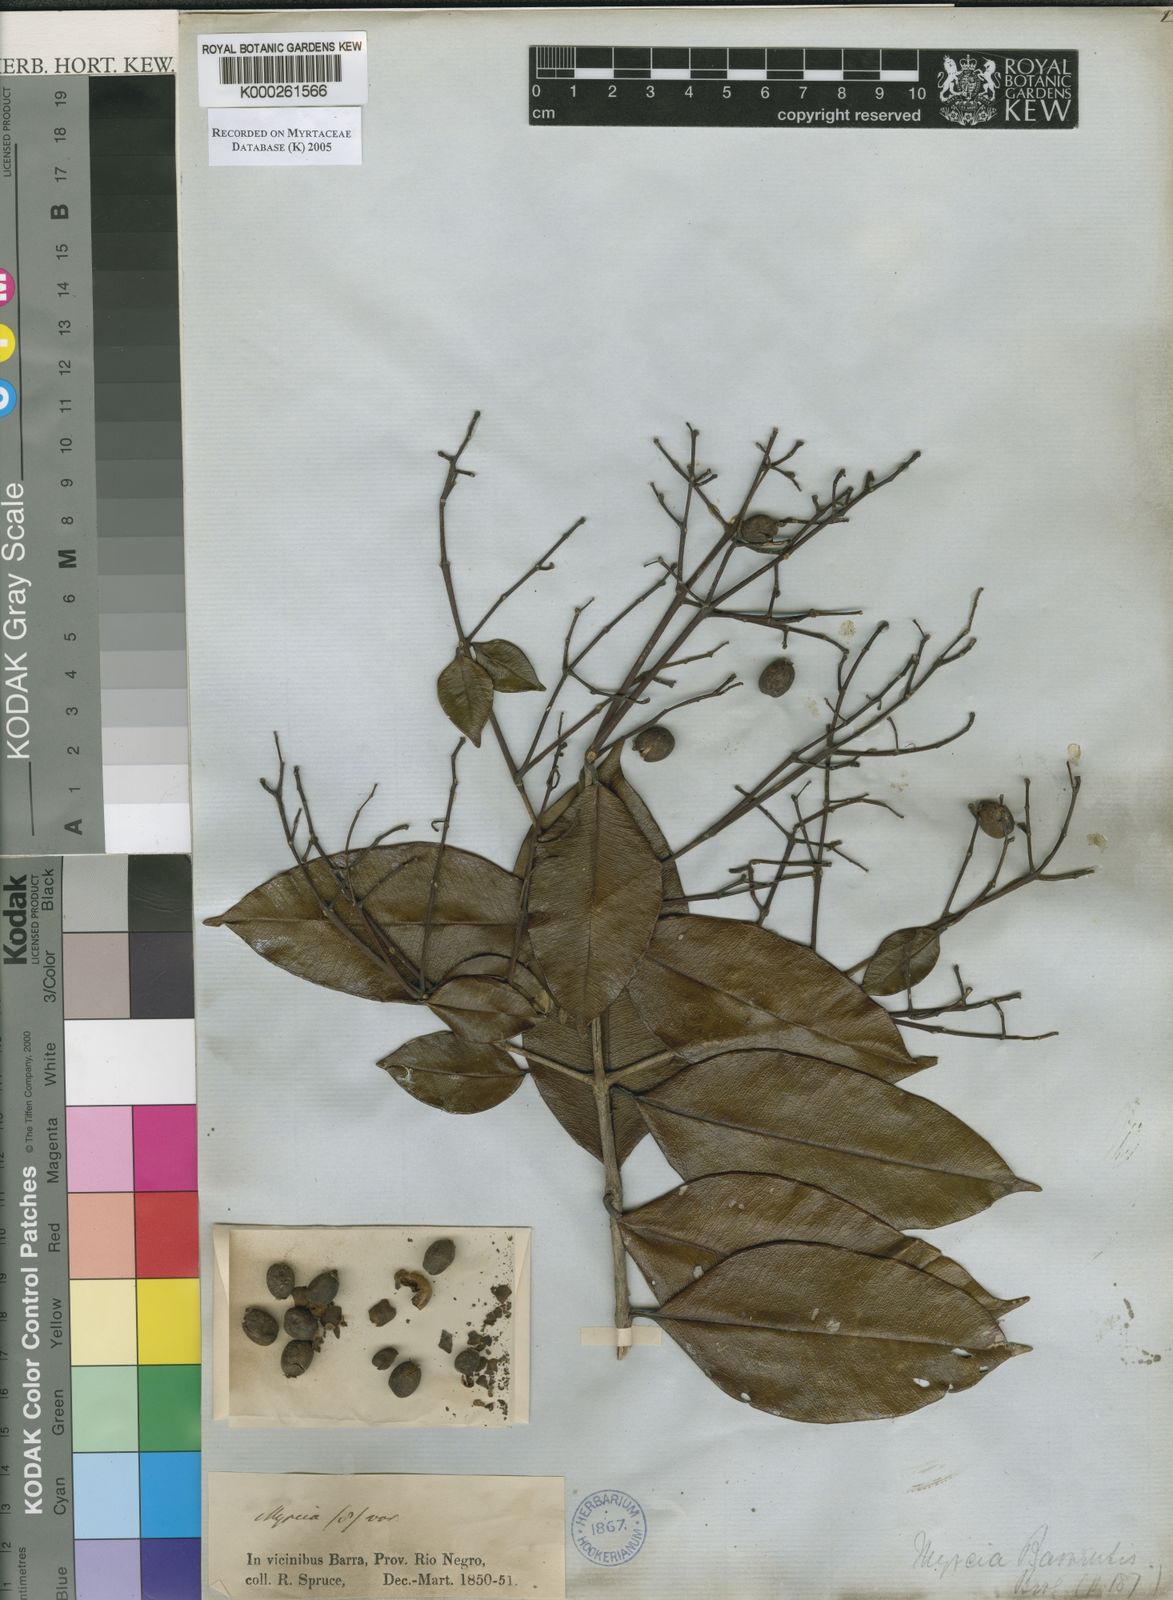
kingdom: Plantae
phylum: Tracheophyta
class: Magnoliopsida
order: Myrtales
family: Myrtaceae
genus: Myrcia
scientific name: Myrcia splendens
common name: Surinam cherry
